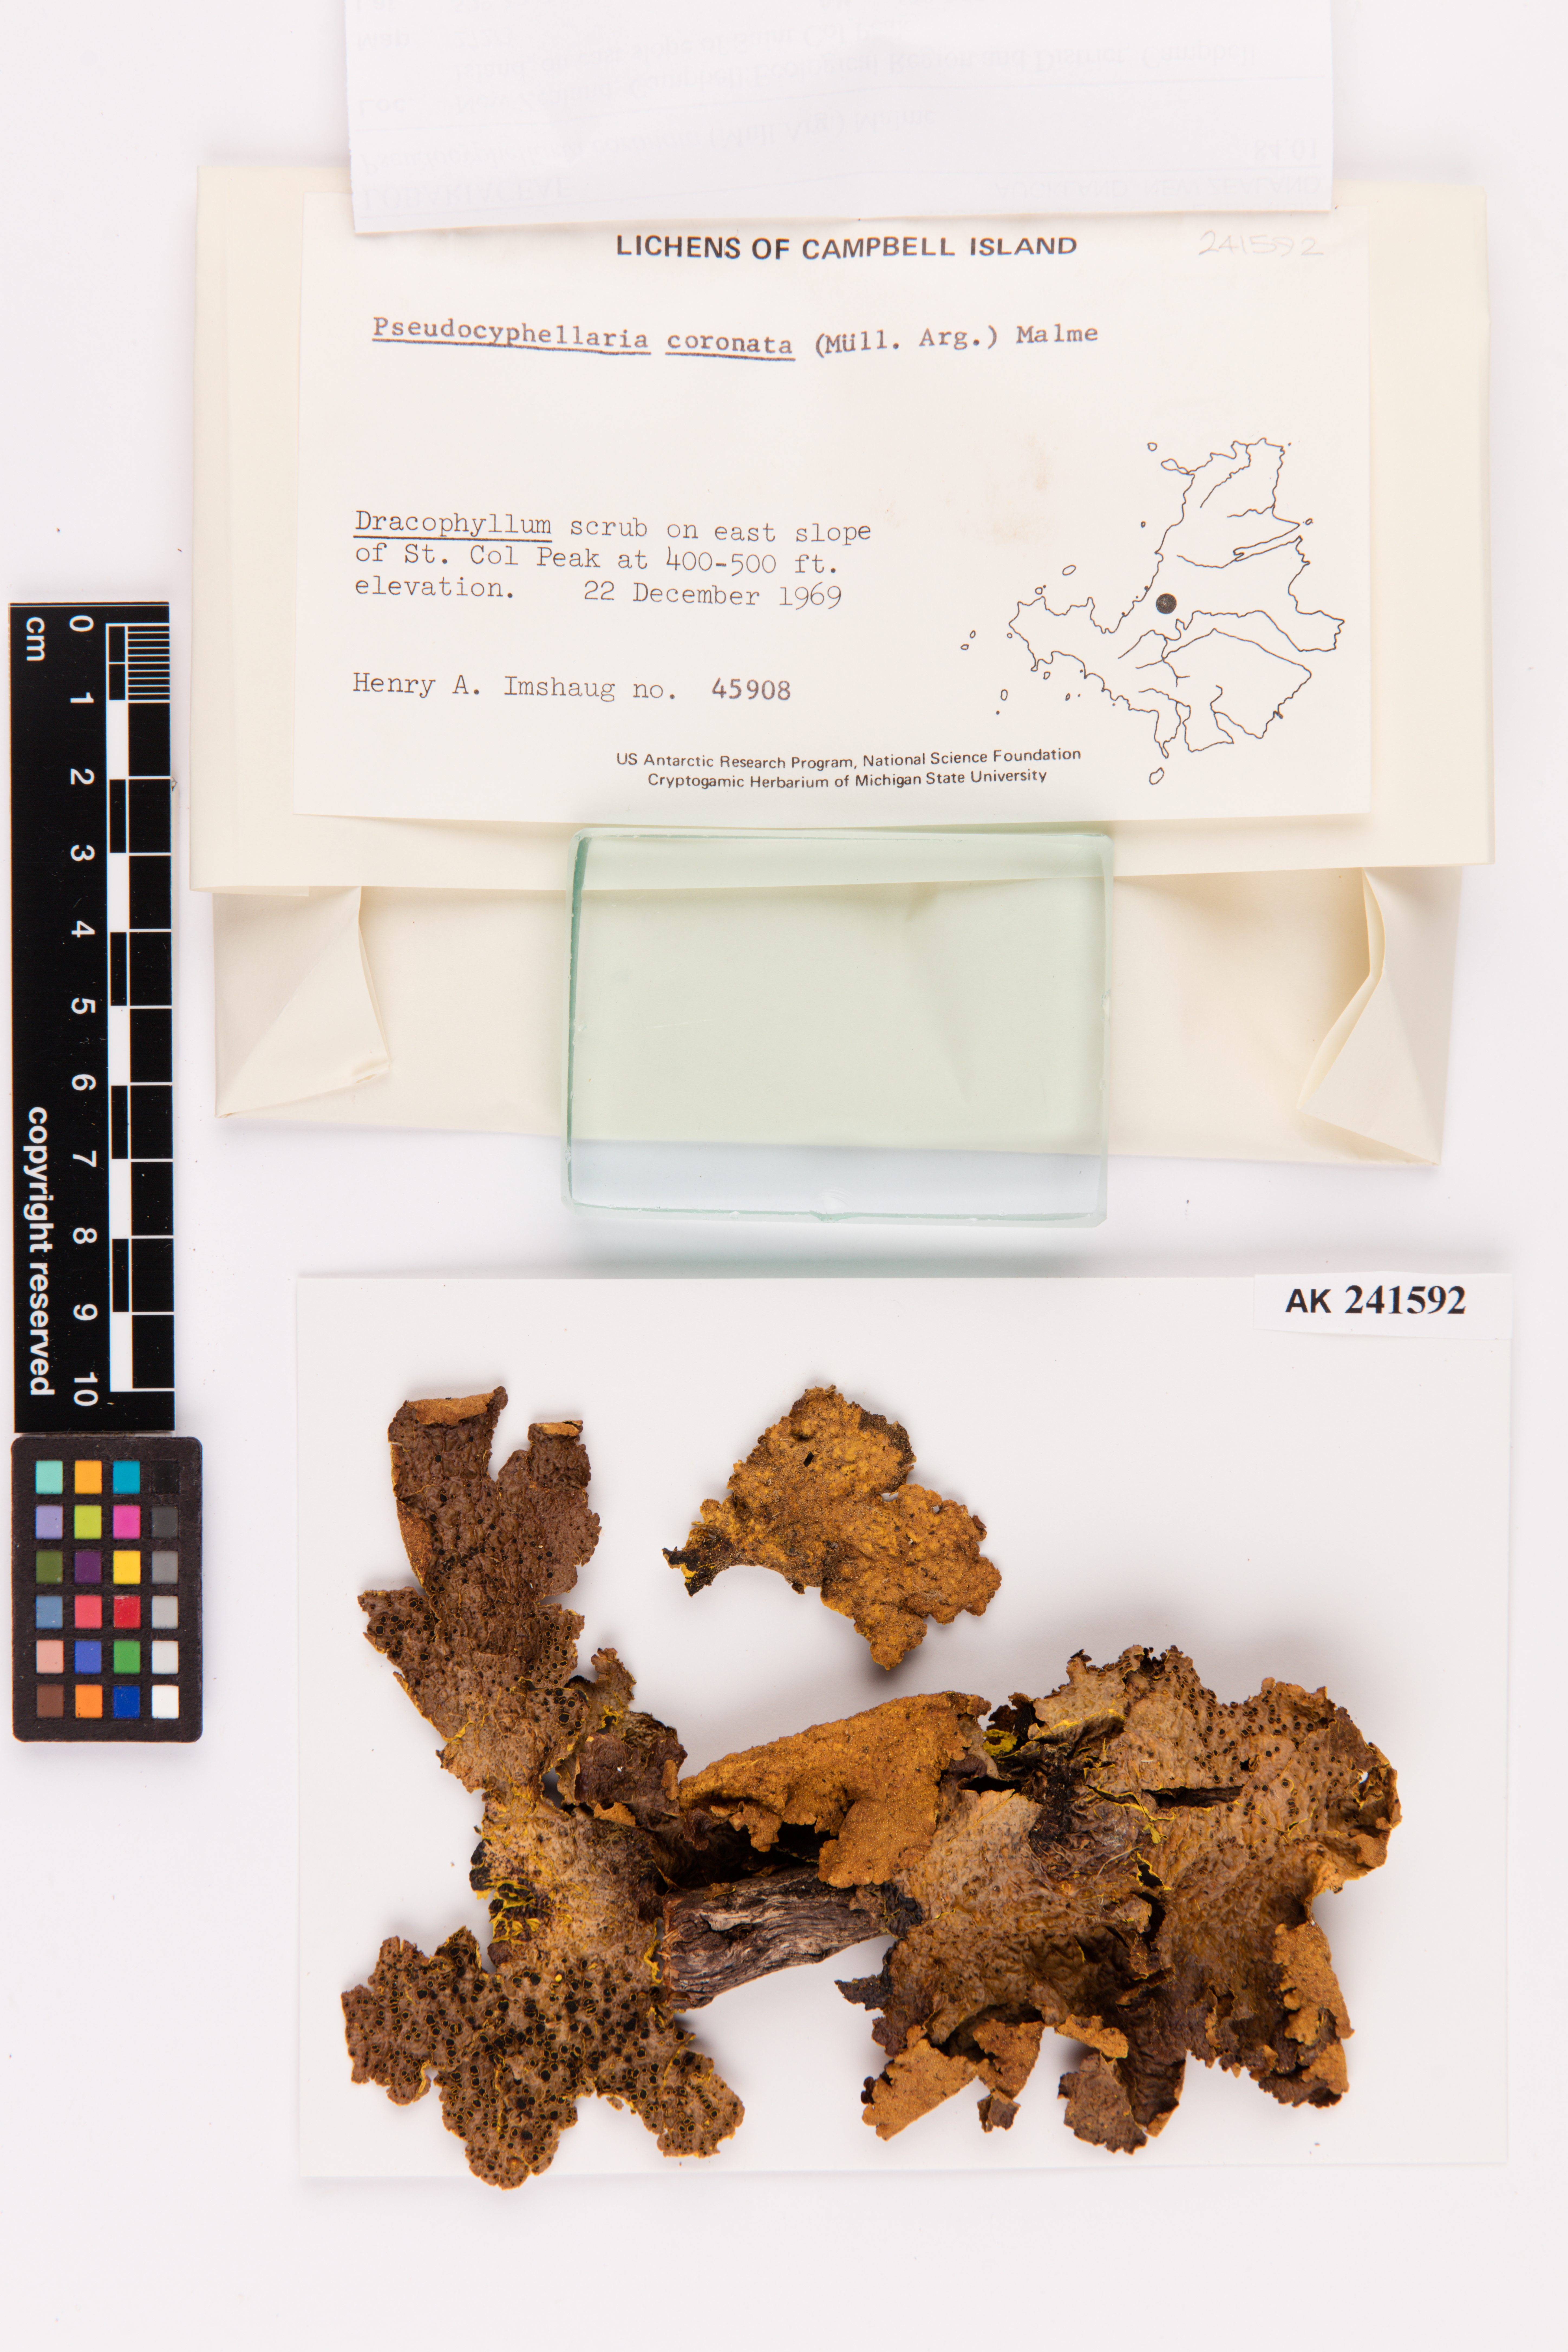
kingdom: Fungi
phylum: Ascomycota
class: Lecanoromycetes
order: Peltigerales
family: Lobariaceae
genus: Yarrumia
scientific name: Yarrumia coronata
